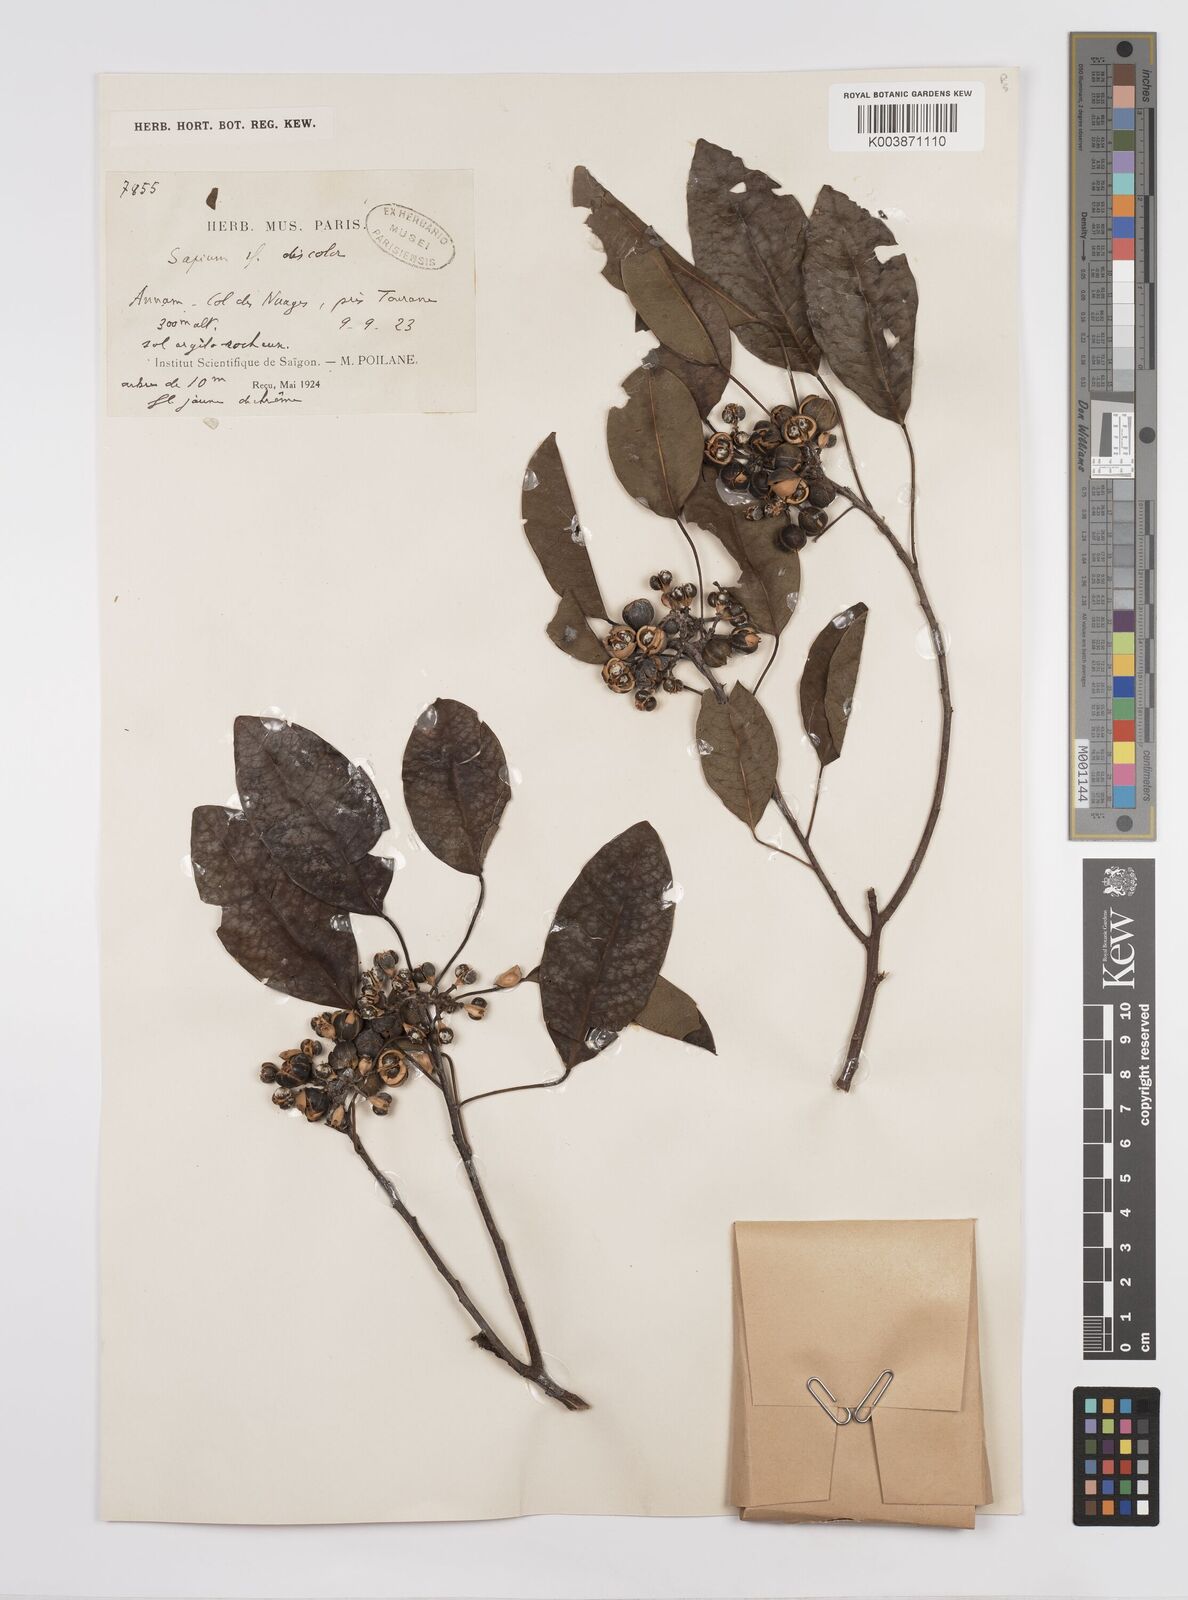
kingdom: Plantae
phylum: Tracheophyta
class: Magnoliopsida
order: Malpighiales
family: Euphorbiaceae
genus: Triadica
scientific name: Triadica cochinchinensis
